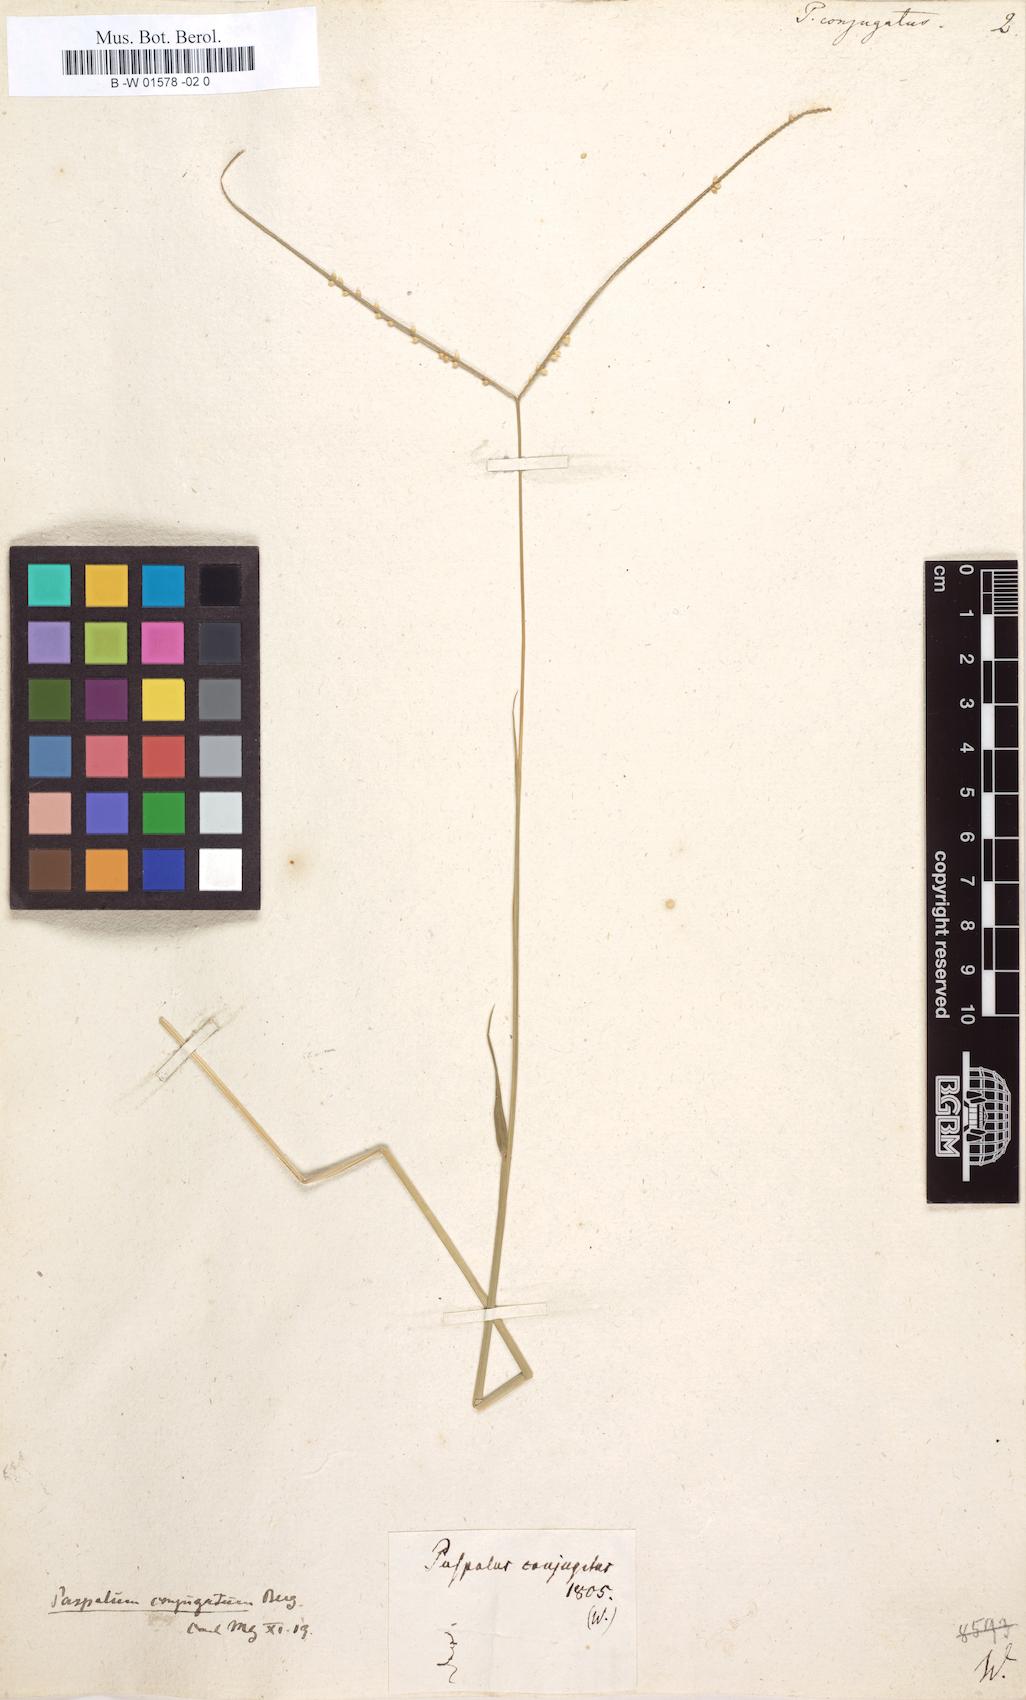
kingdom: Plantae
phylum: Tracheophyta
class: Liliopsida
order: Poales
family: Poaceae
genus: Paspalum
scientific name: Paspalum conjugatum
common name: Hilograss
